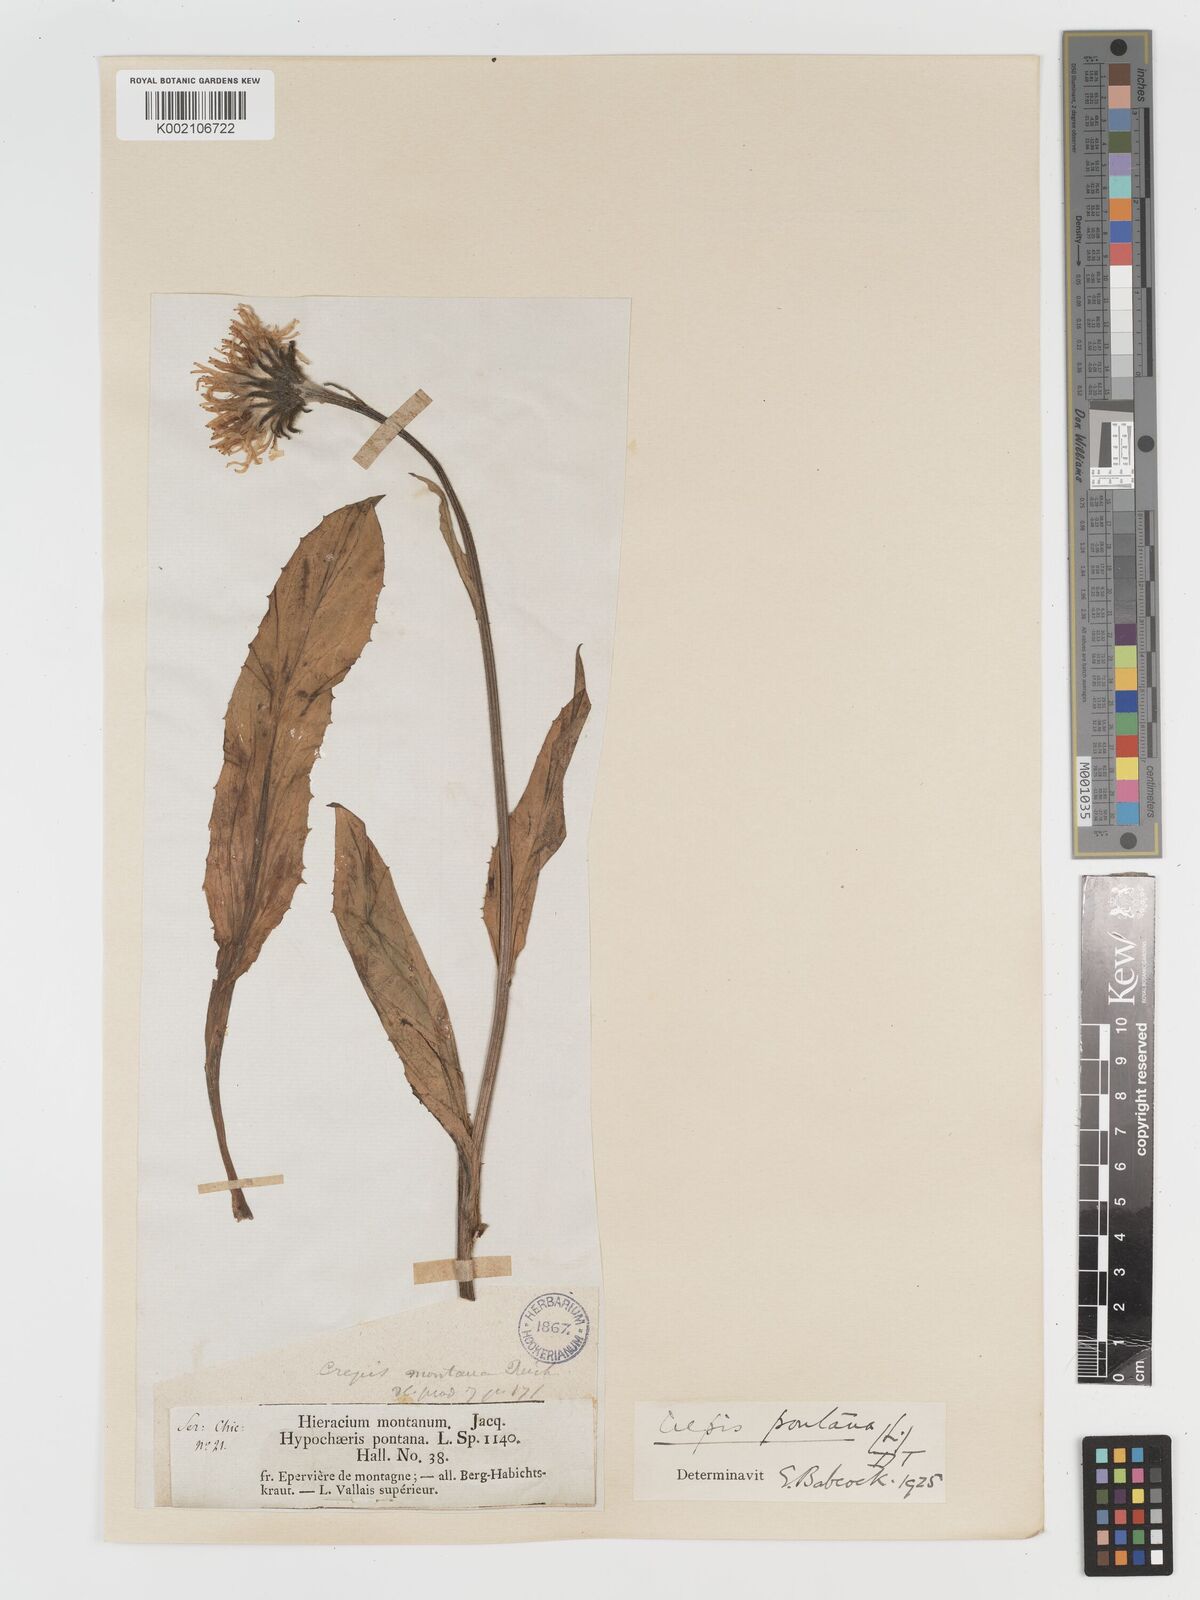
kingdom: Plantae
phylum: Tracheophyta
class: Magnoliopsida
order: Asterales
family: Asteraceae
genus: Crepis
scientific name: Crepis pontana
